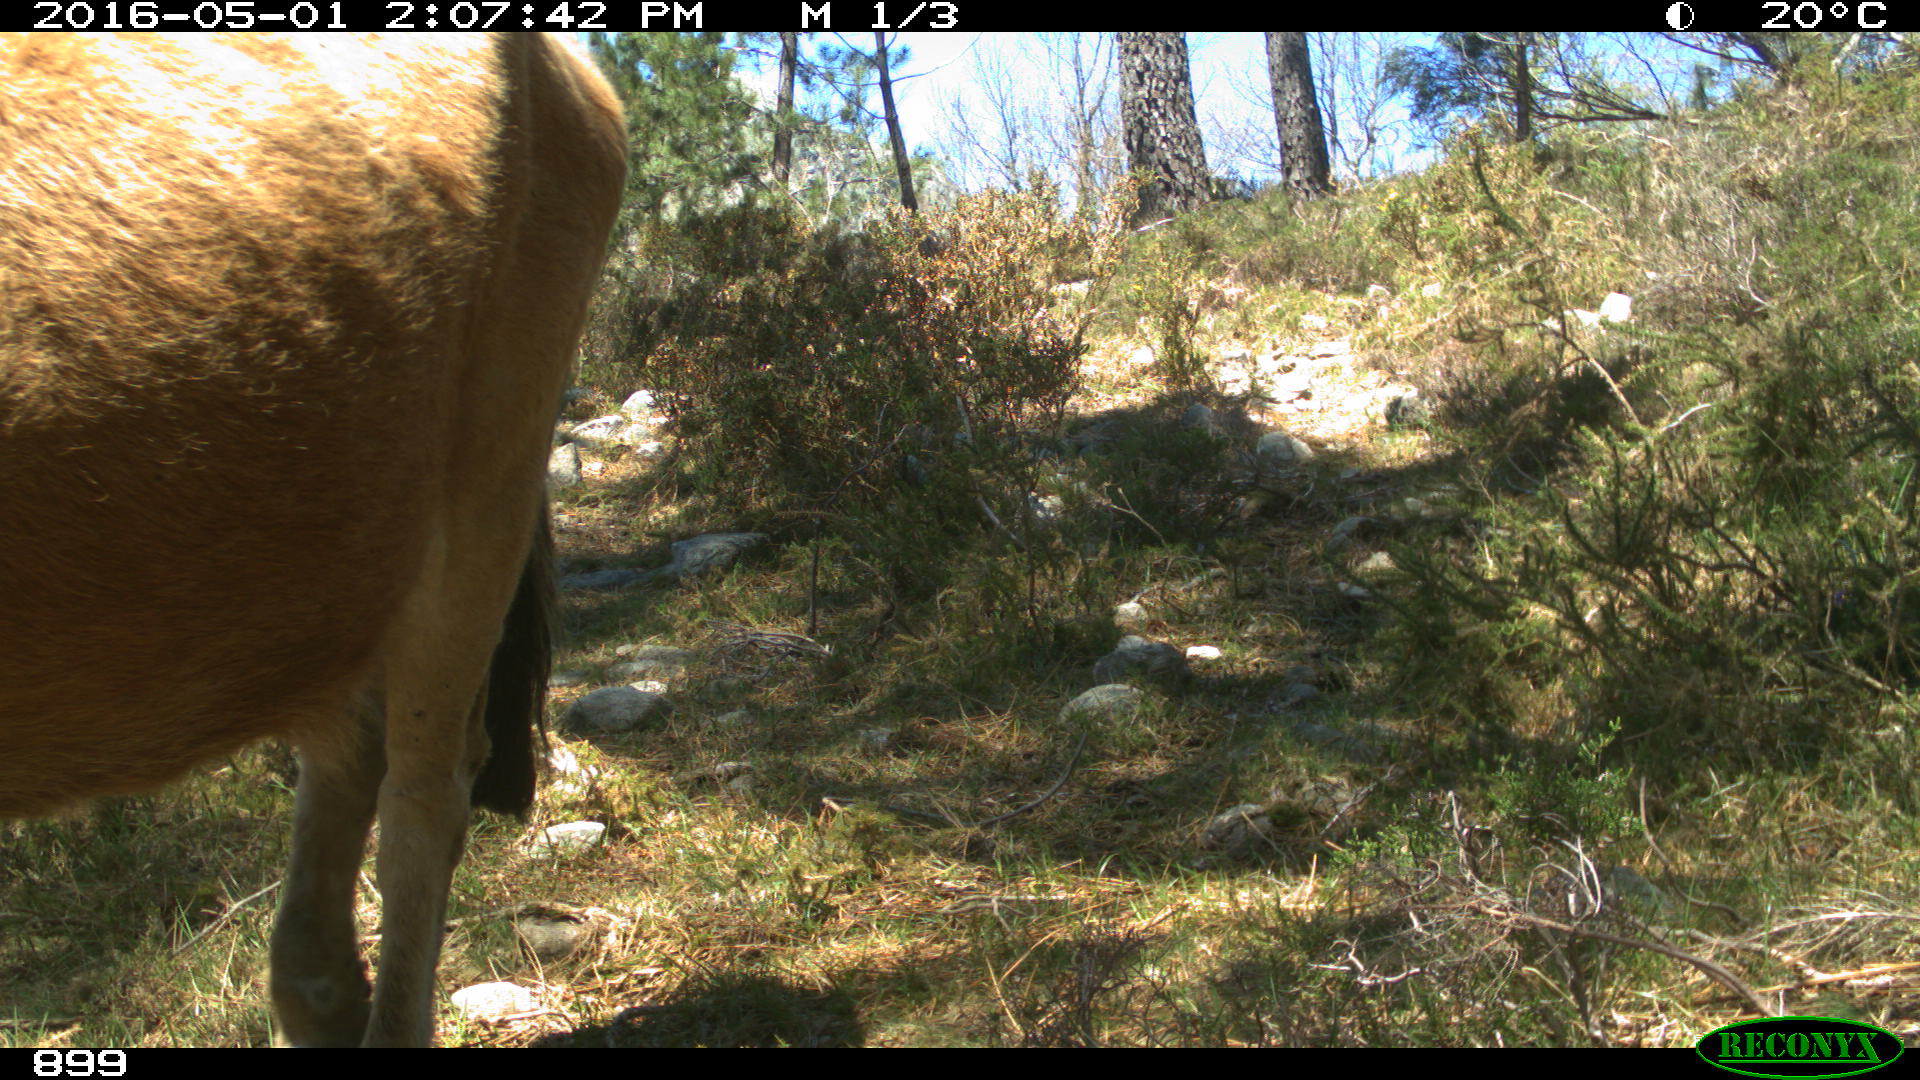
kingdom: Animalia
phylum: Chordata
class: Mammalia
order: Artiodactyla
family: Bovidae
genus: Bos
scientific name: Bos taurus
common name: Domesticated cattle
